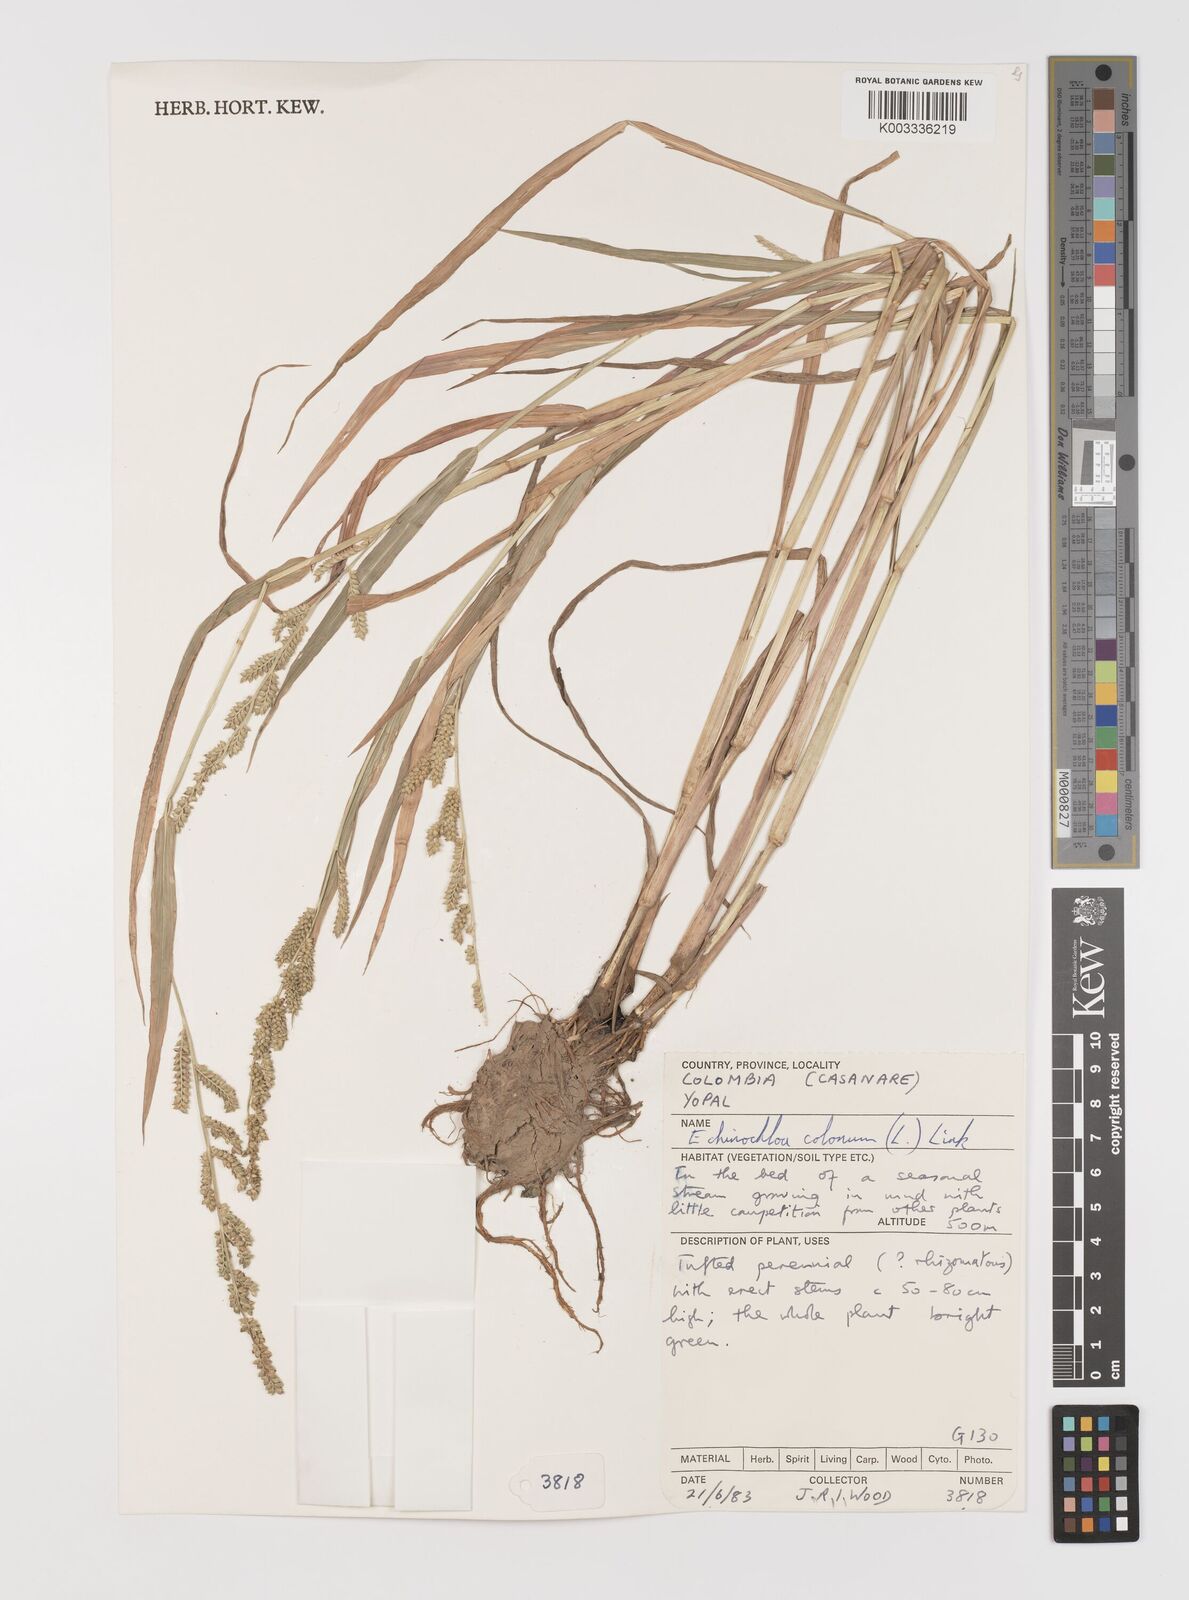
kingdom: Plantae
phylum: Tracheophyta
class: Liliopsida
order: Poales
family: Poaceae
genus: Echinochloa
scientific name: Echinochloa colonum
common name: Jungle rice
